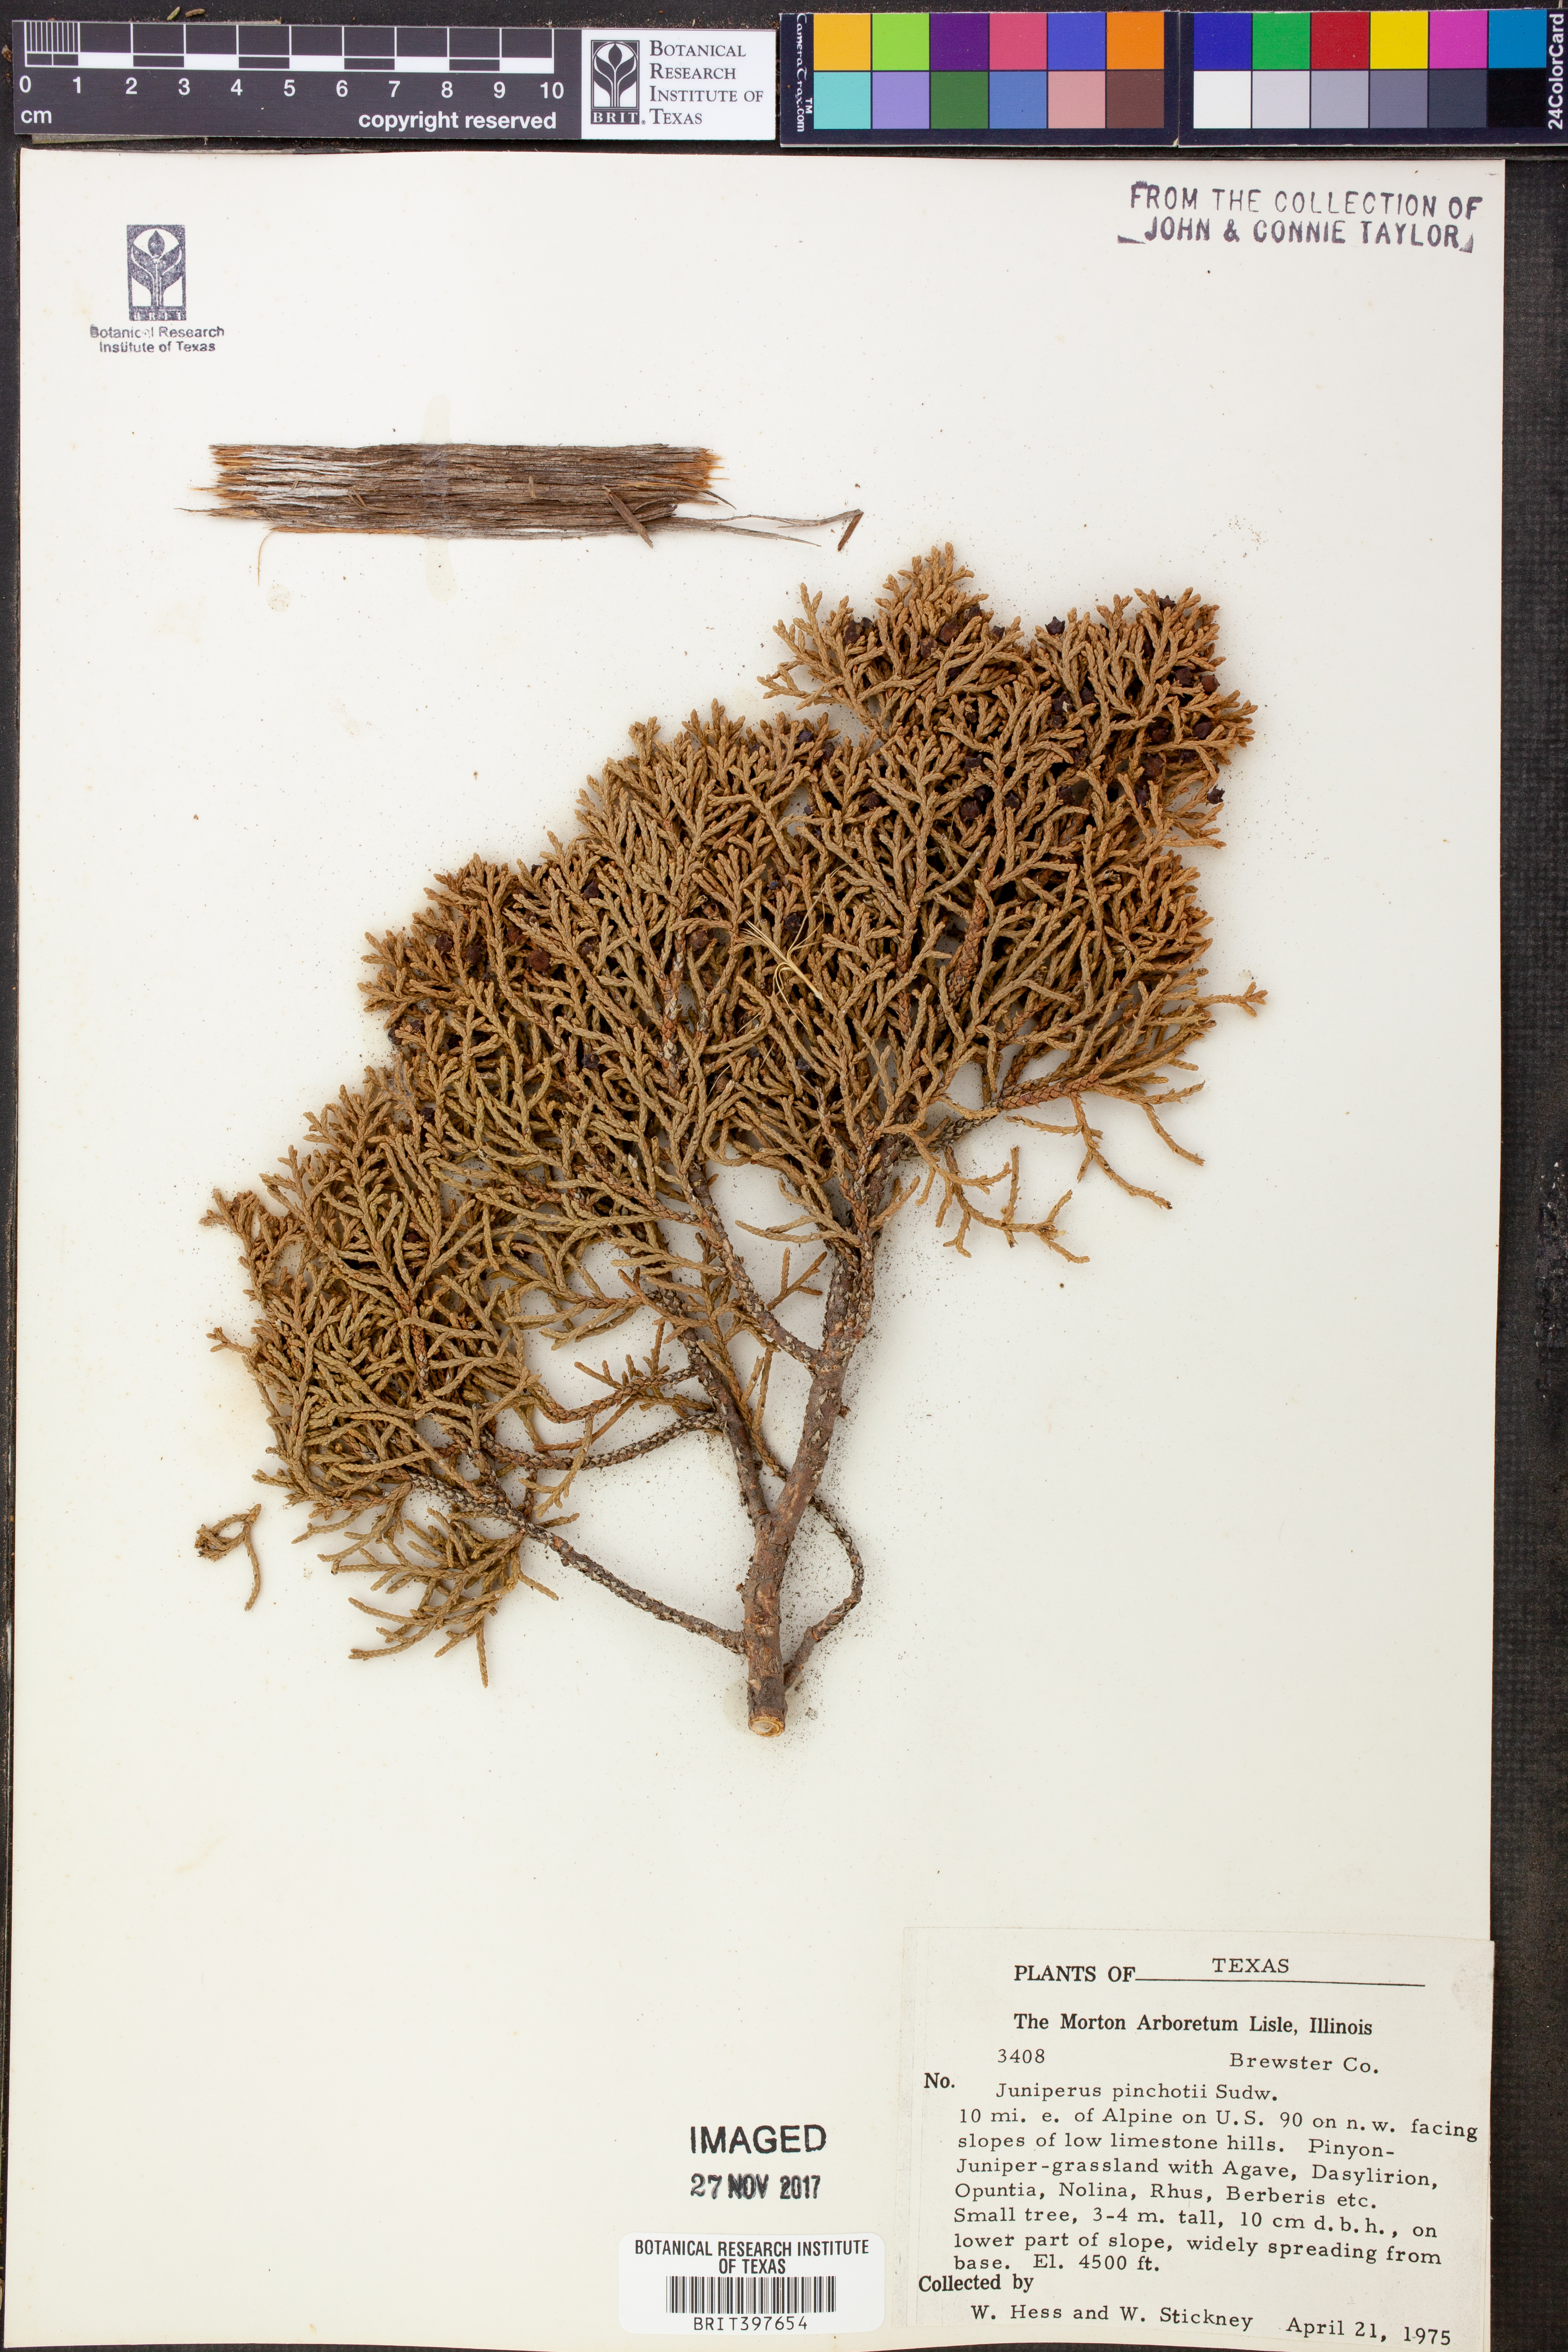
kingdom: Plantae
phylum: Tracheophyta
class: Pinopsida
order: Pinales
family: Cupressaceae
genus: Juniperus
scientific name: Juniperus pinchotii
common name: Pinchot juniper
